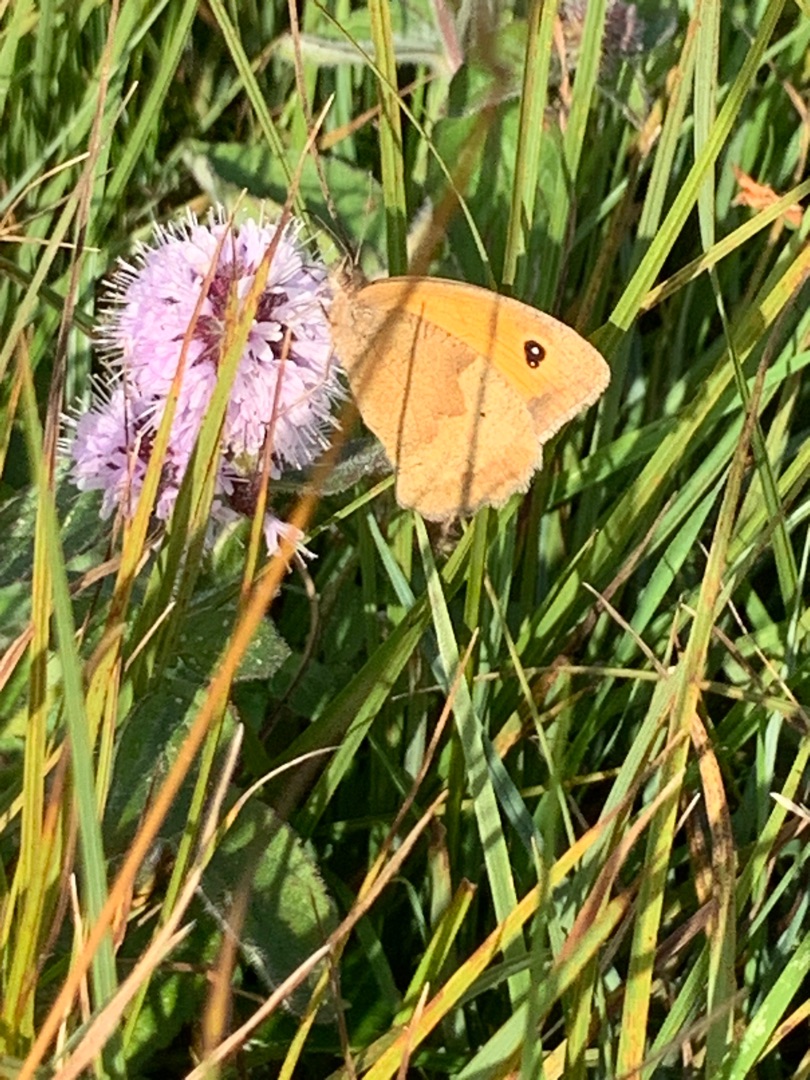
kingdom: Animalia
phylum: Arthropoda
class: Insecta
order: Lepidoptera
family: Nymphalidae
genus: Maniola
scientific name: Maniola jurtina
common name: Græsrandøje
